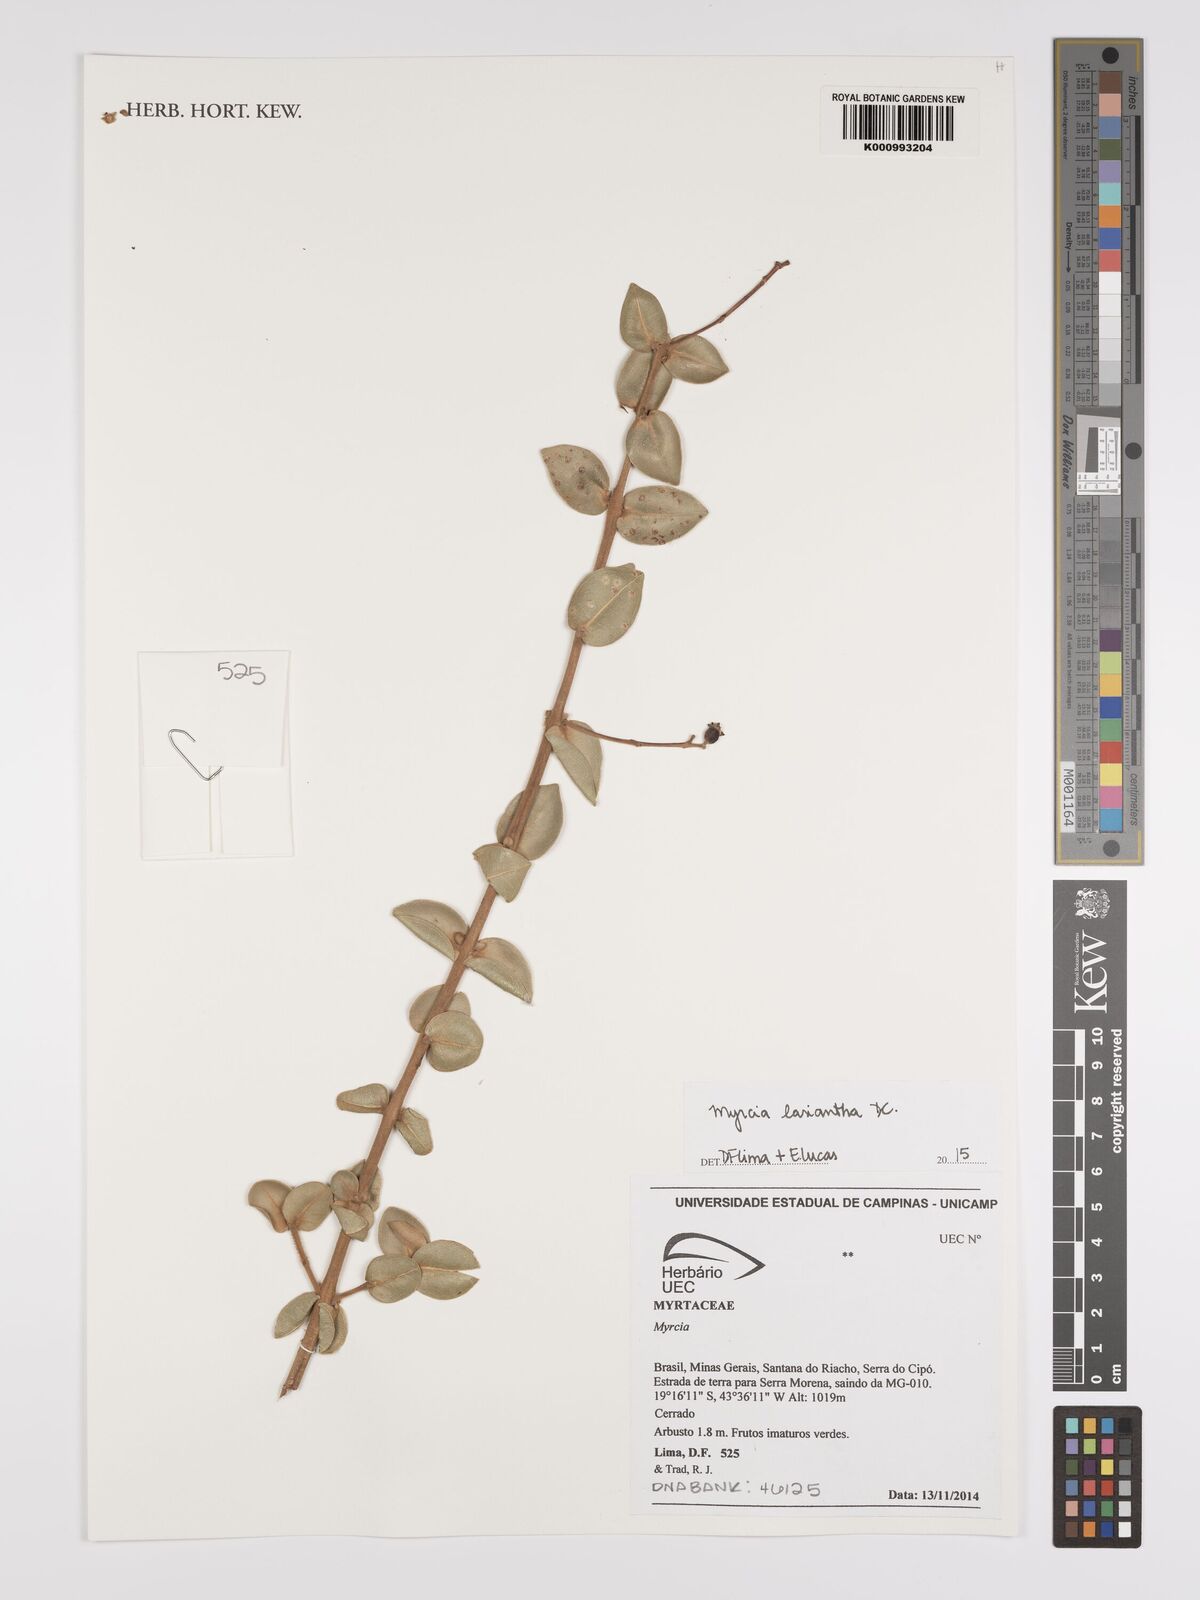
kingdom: Plantae
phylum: Tracheophyta
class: Magnoliopsida
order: Myrtales
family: Myrtaceae
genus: Myrcia
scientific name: Myrcia lasiantha
